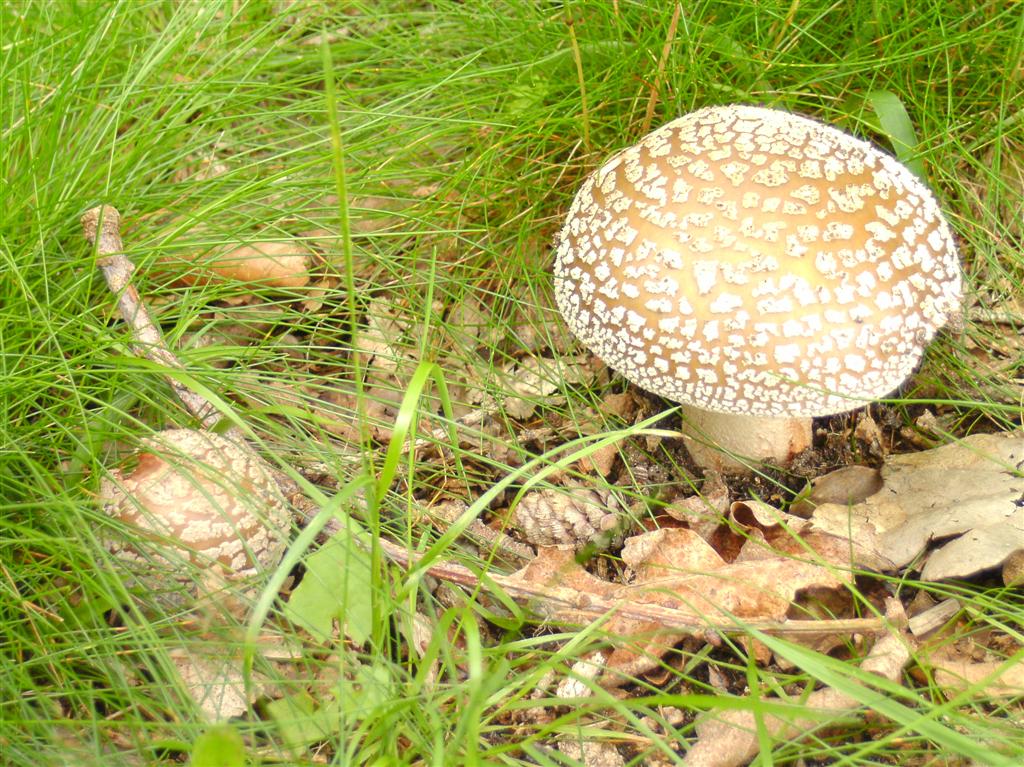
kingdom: Fungi
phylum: Basidiomycota
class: Agaricomycetes
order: Agaricales
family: Amanitaceae
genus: Amanita
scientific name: Amanita rubescens
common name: rødmende fluesvamp
